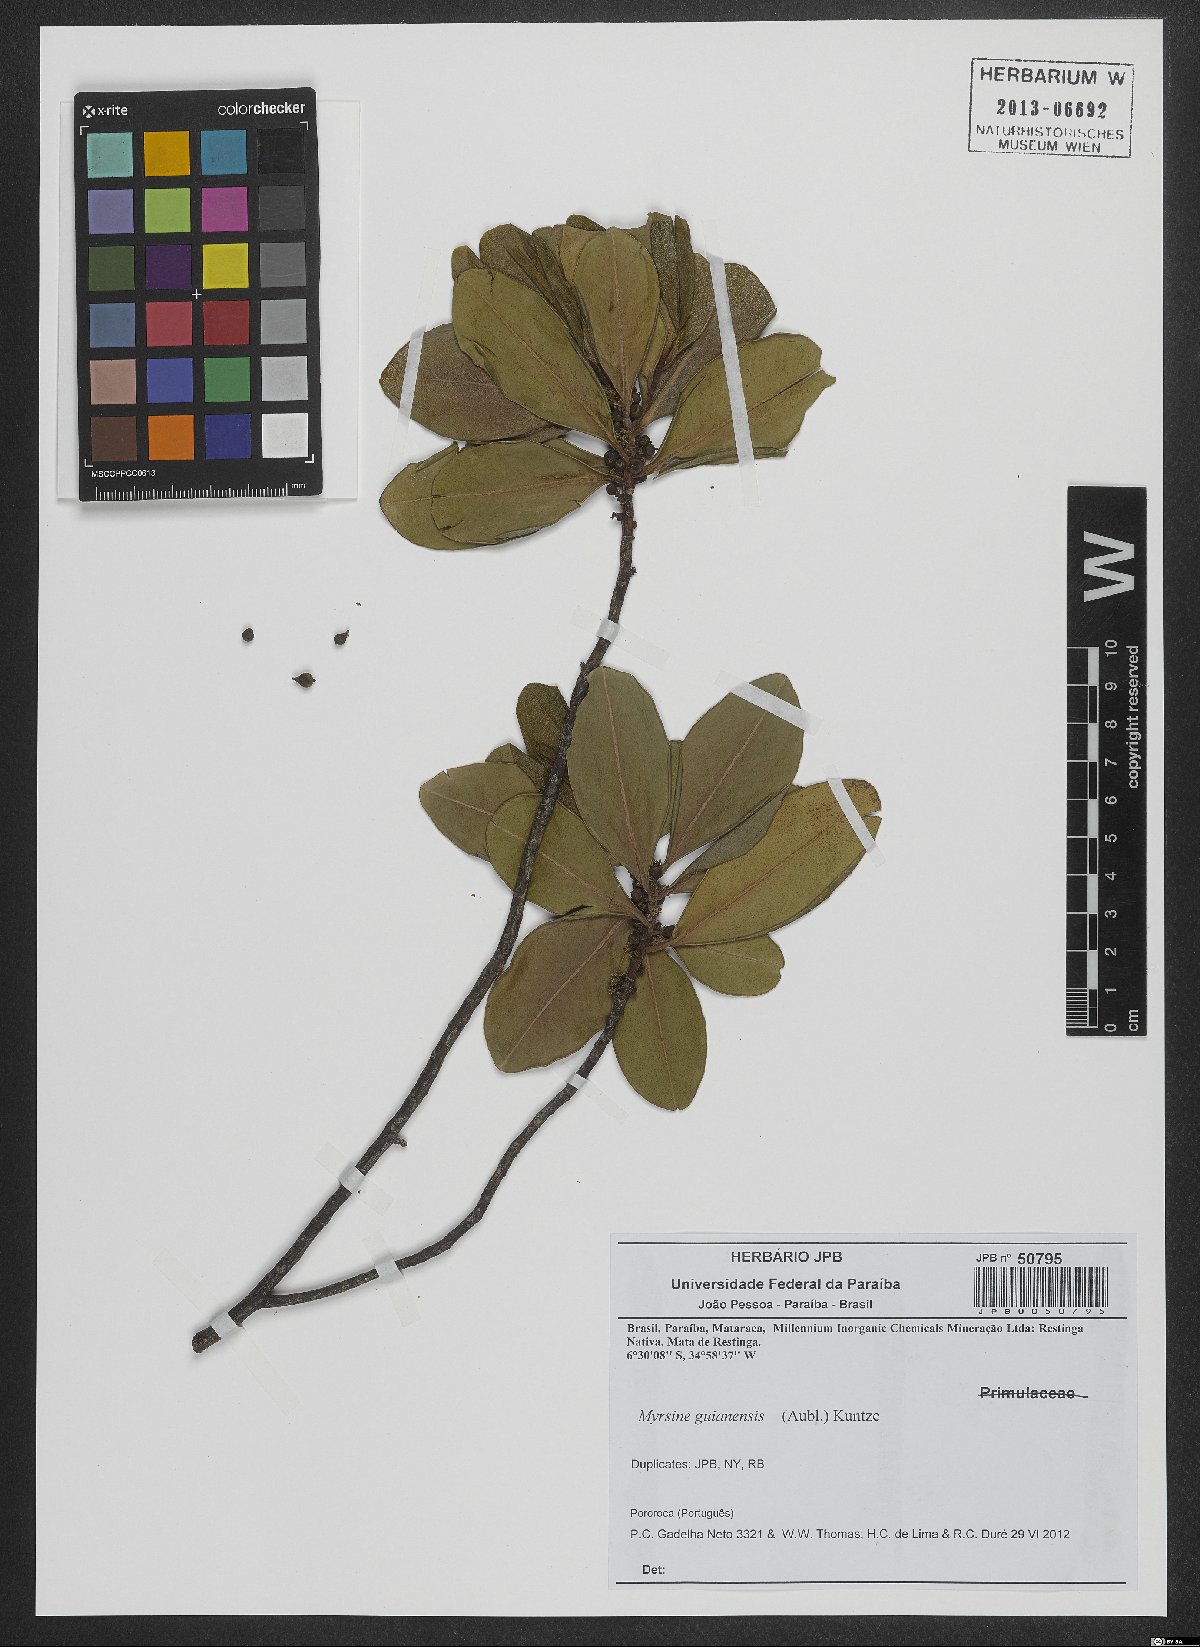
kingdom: Plantae
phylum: Tracheophyta
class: Magnoliopsida
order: Ericales
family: Primulaceae
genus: Myrsine
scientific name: Myrsine guianensis
